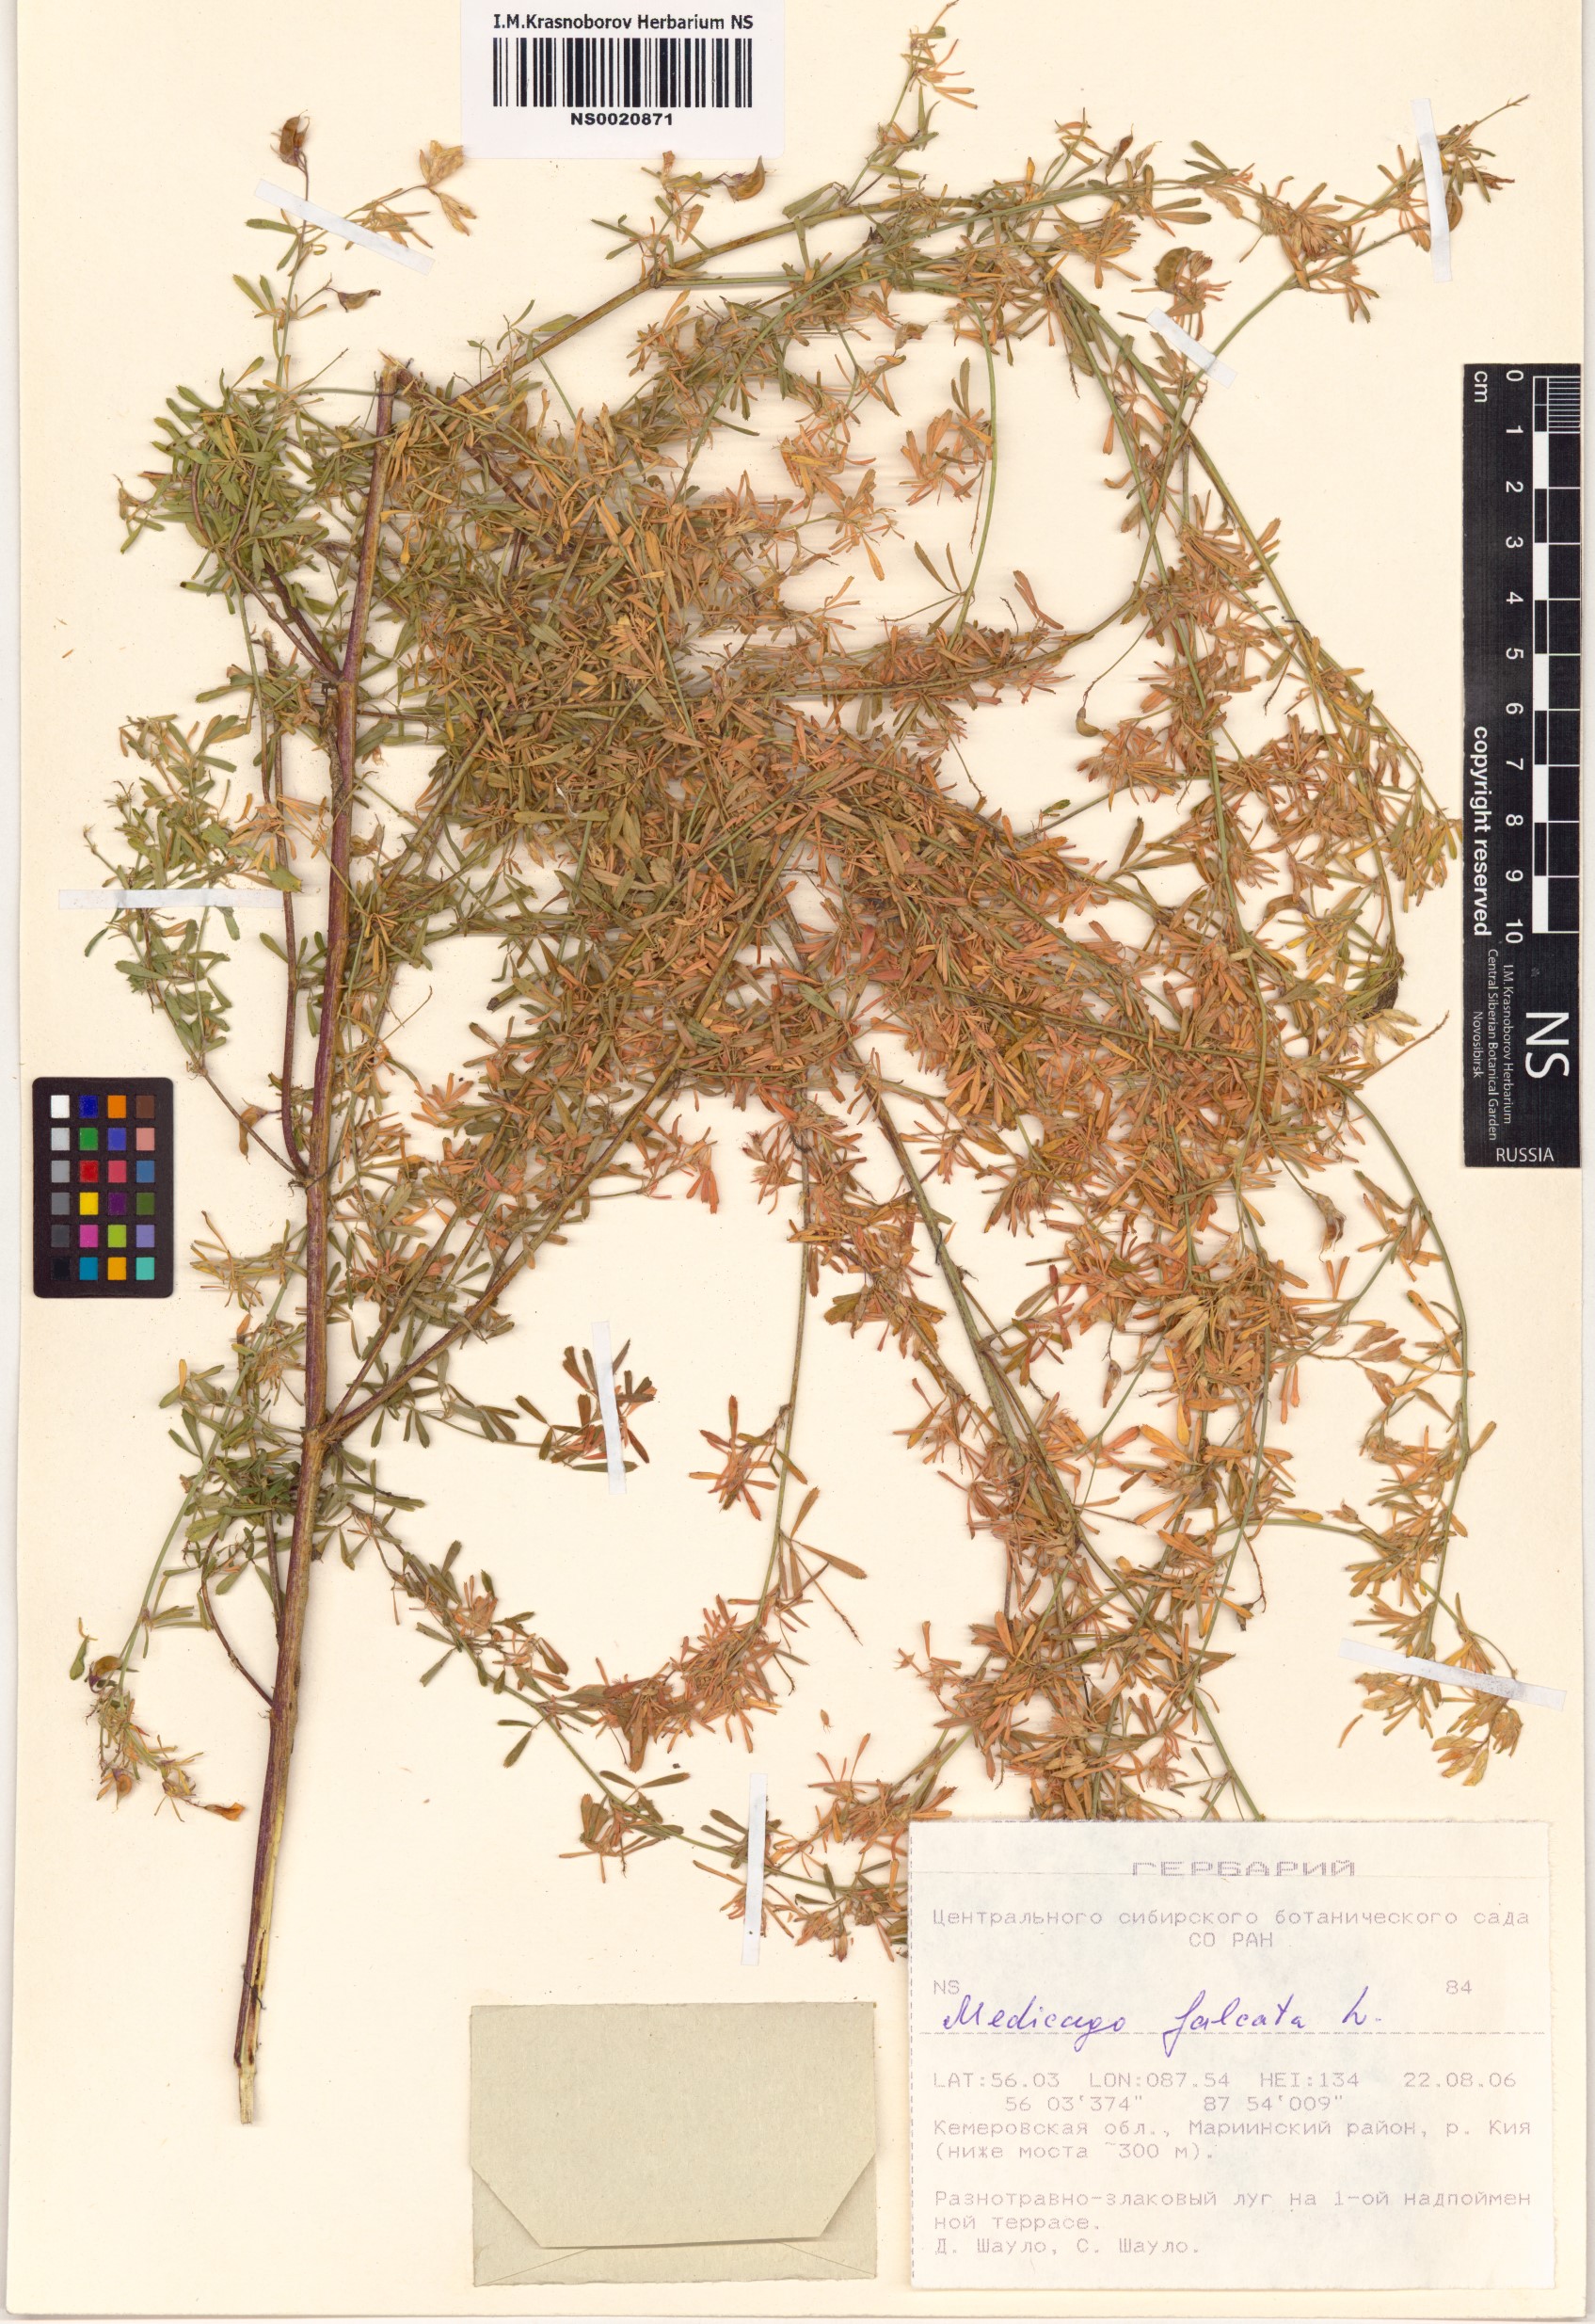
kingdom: Plantae
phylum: Tracheophyta
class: Magnoliopsida
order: Fabales
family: Fabaceae
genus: Medicago
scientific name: Medicago falcata
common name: Sickle medick
